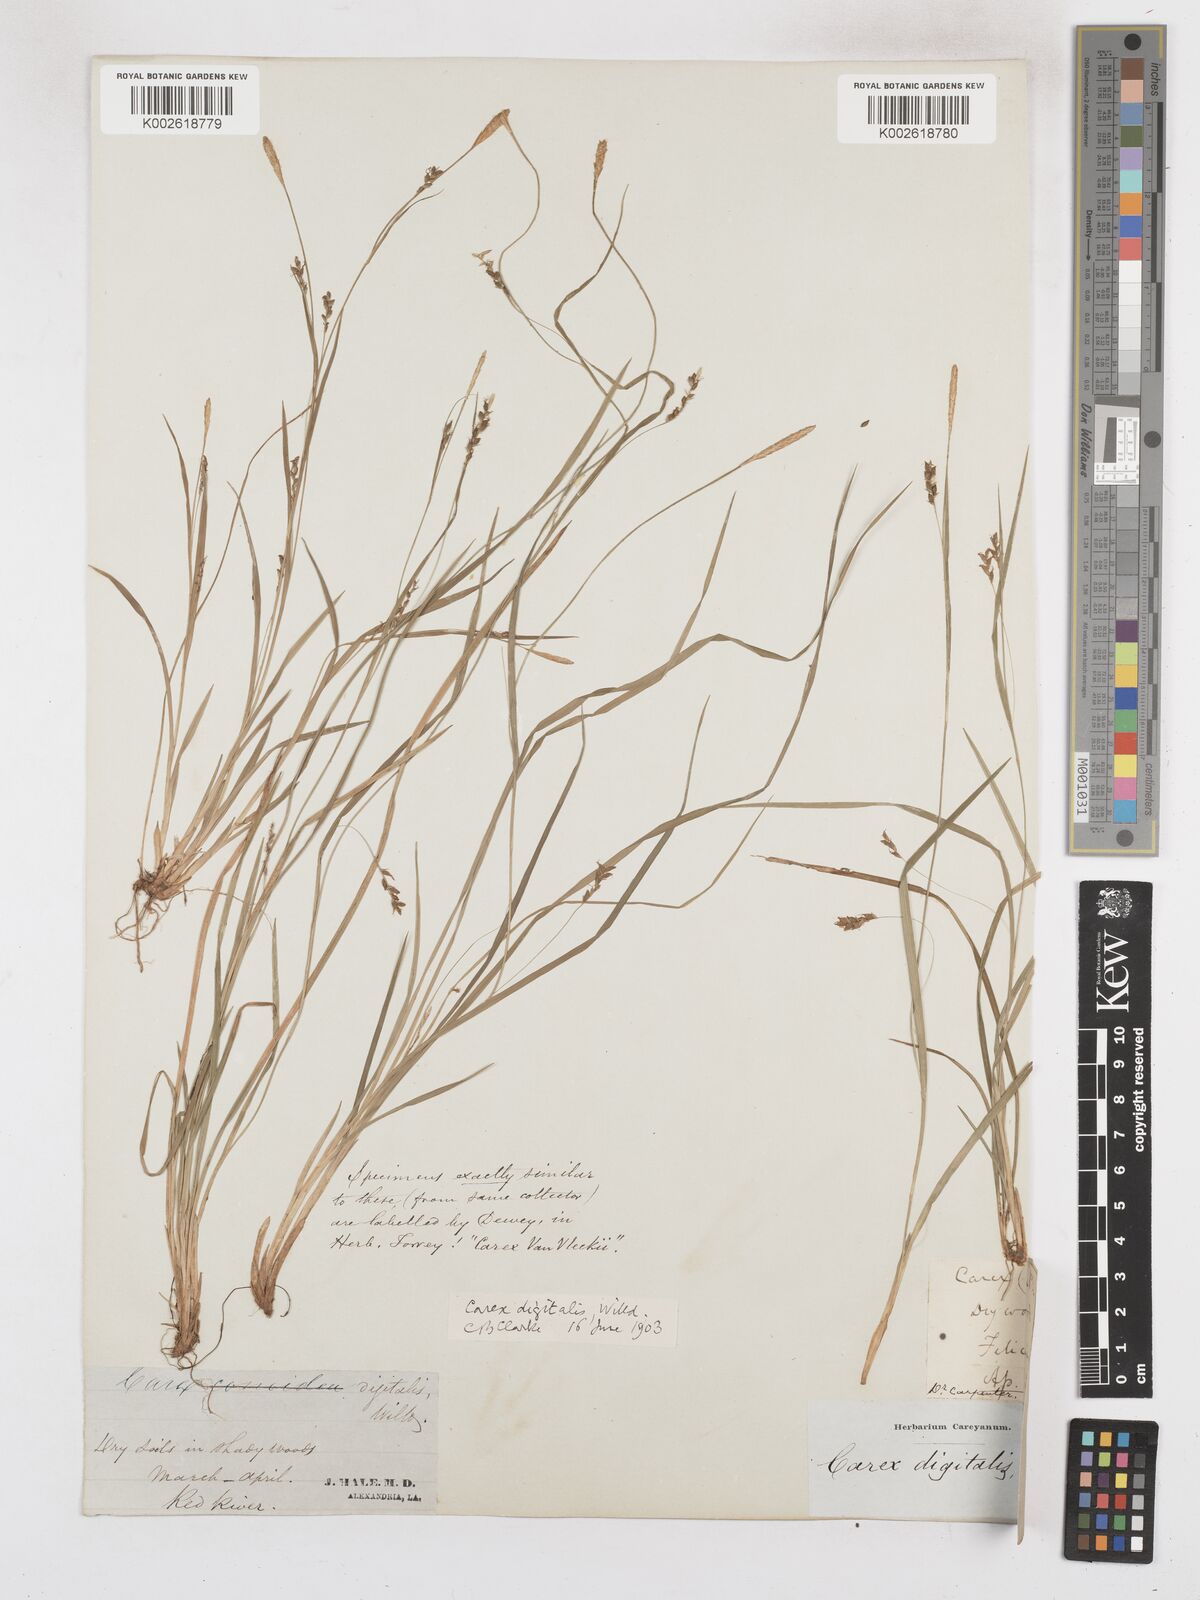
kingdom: Plantae
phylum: Tracheophyta
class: Liliopsida
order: Poales
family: Cyperaceae
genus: Carex
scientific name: Carex digitalis
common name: Slender wood sedge
